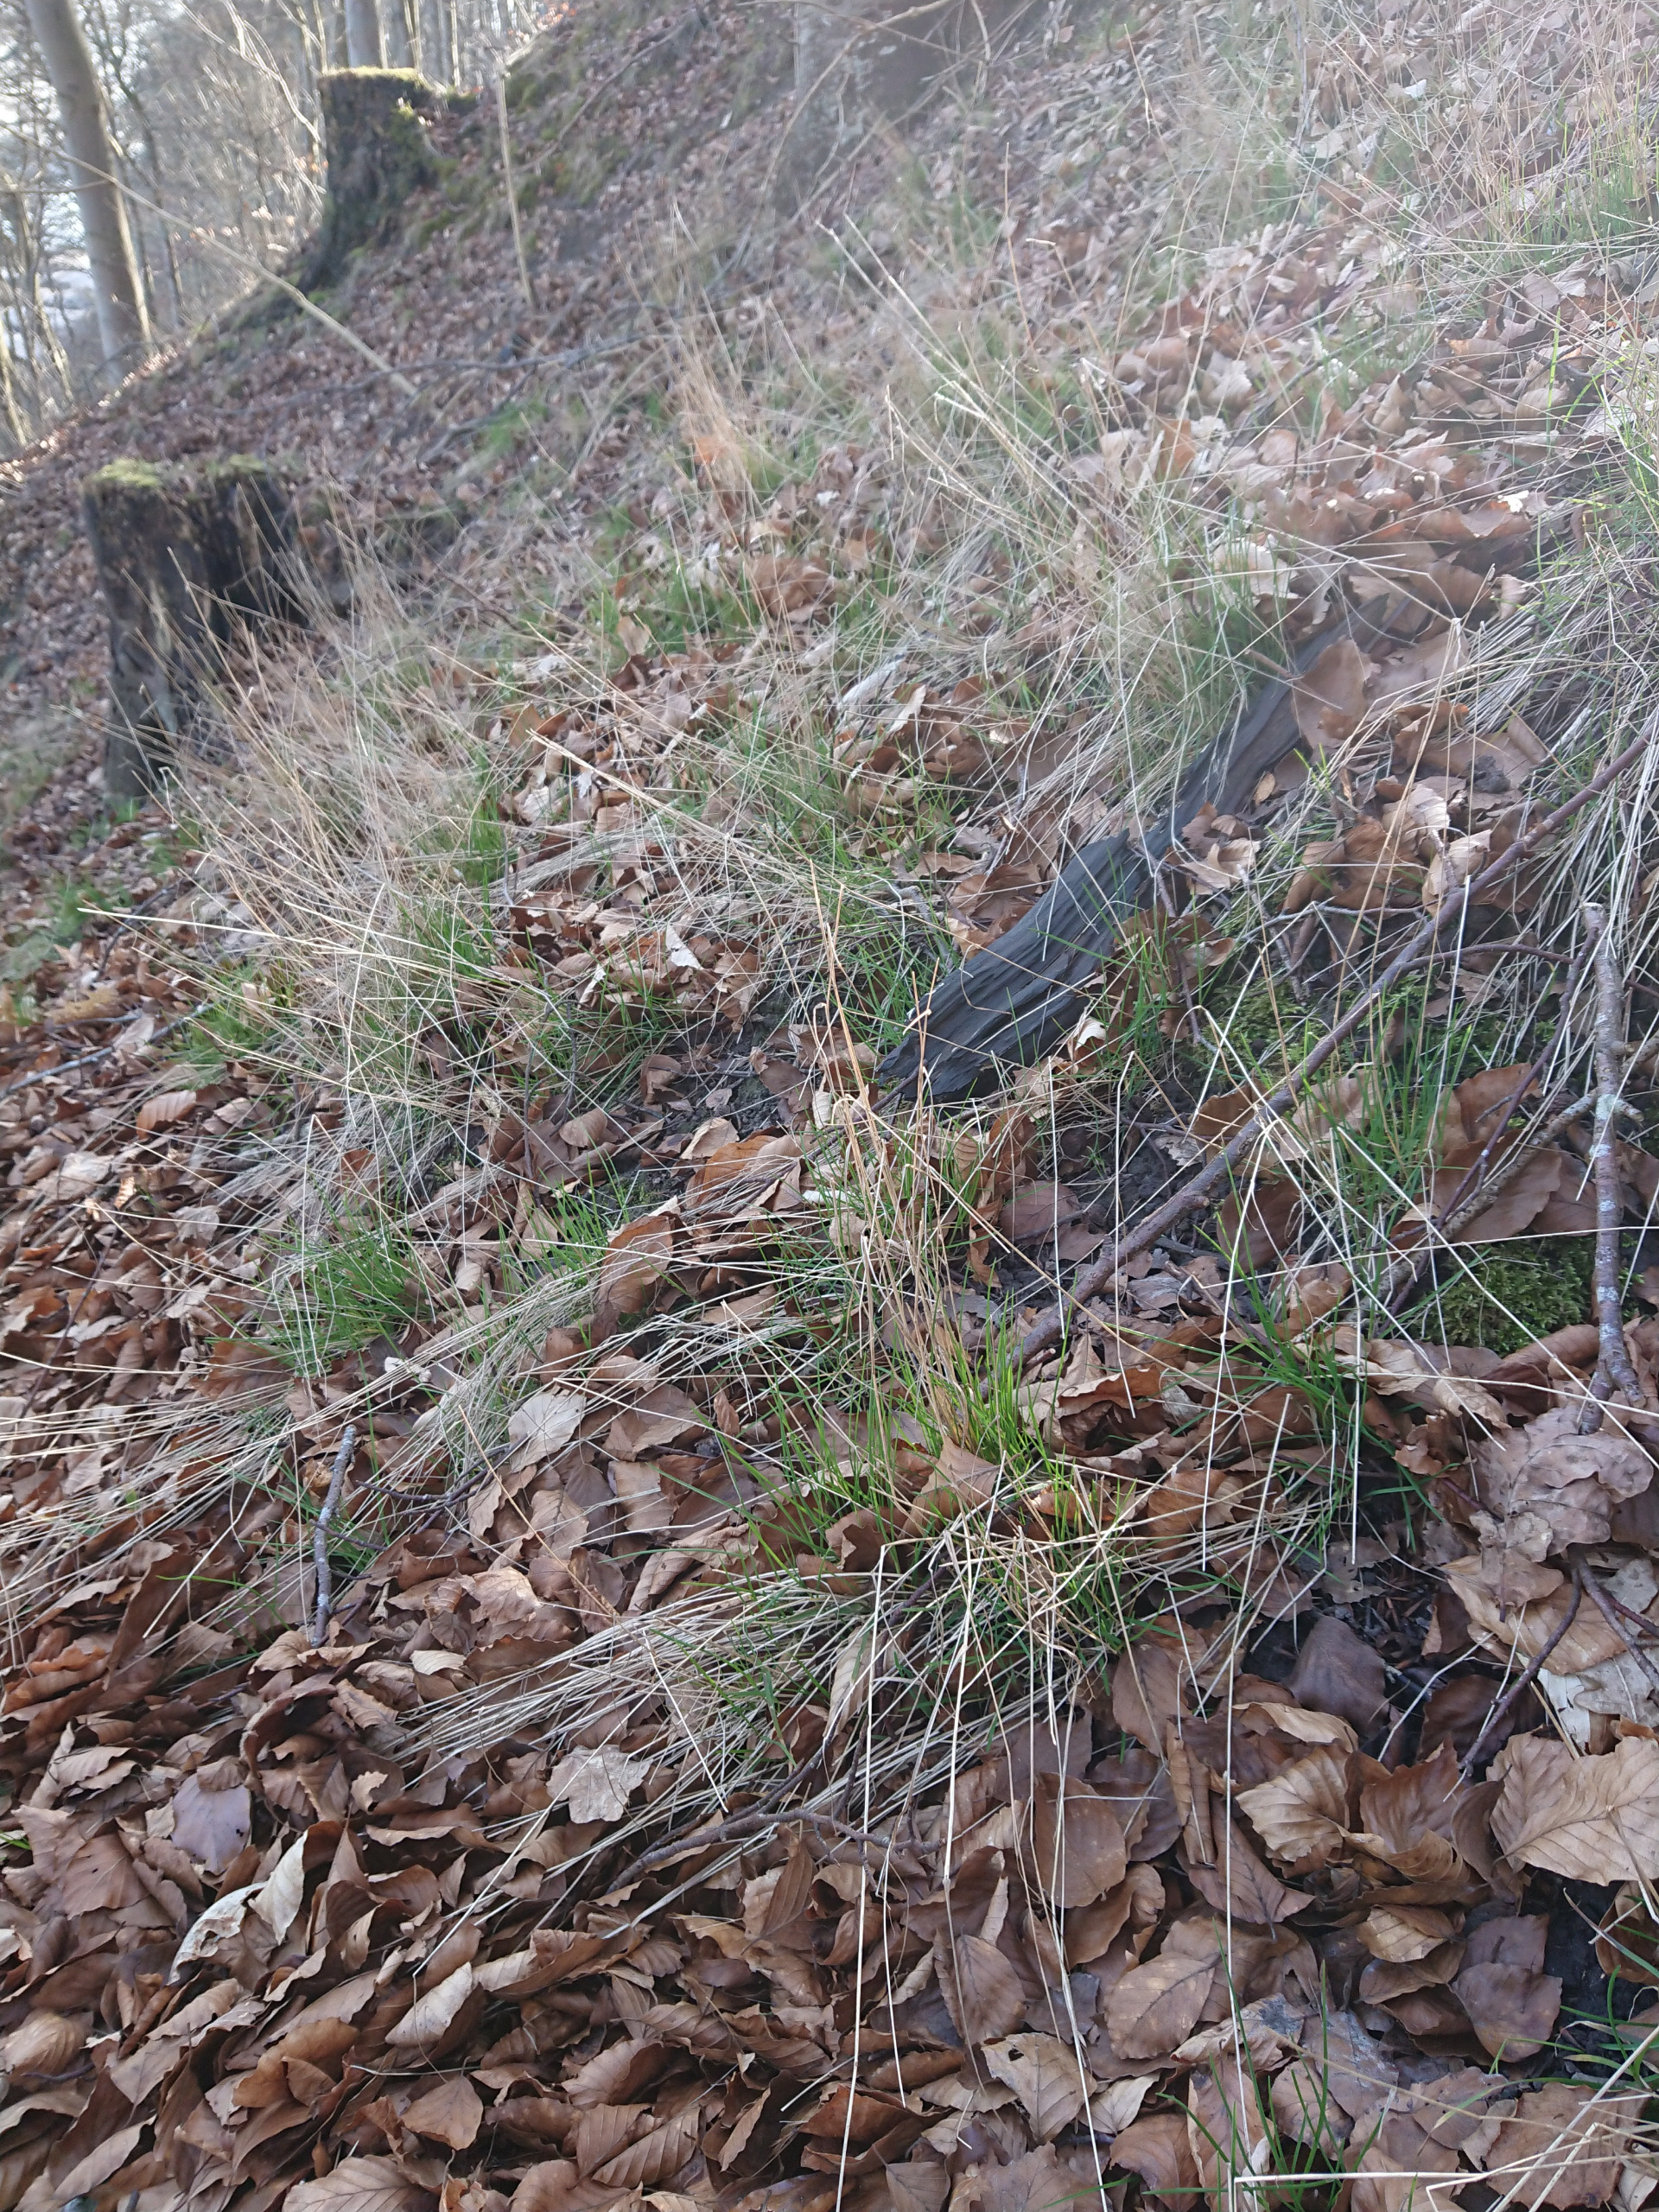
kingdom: Plantae
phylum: Tracheophyta
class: Liliopsida
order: Poales
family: Poaceae
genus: Poa
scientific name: Poa nemoralis
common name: Lund-rapgræs
